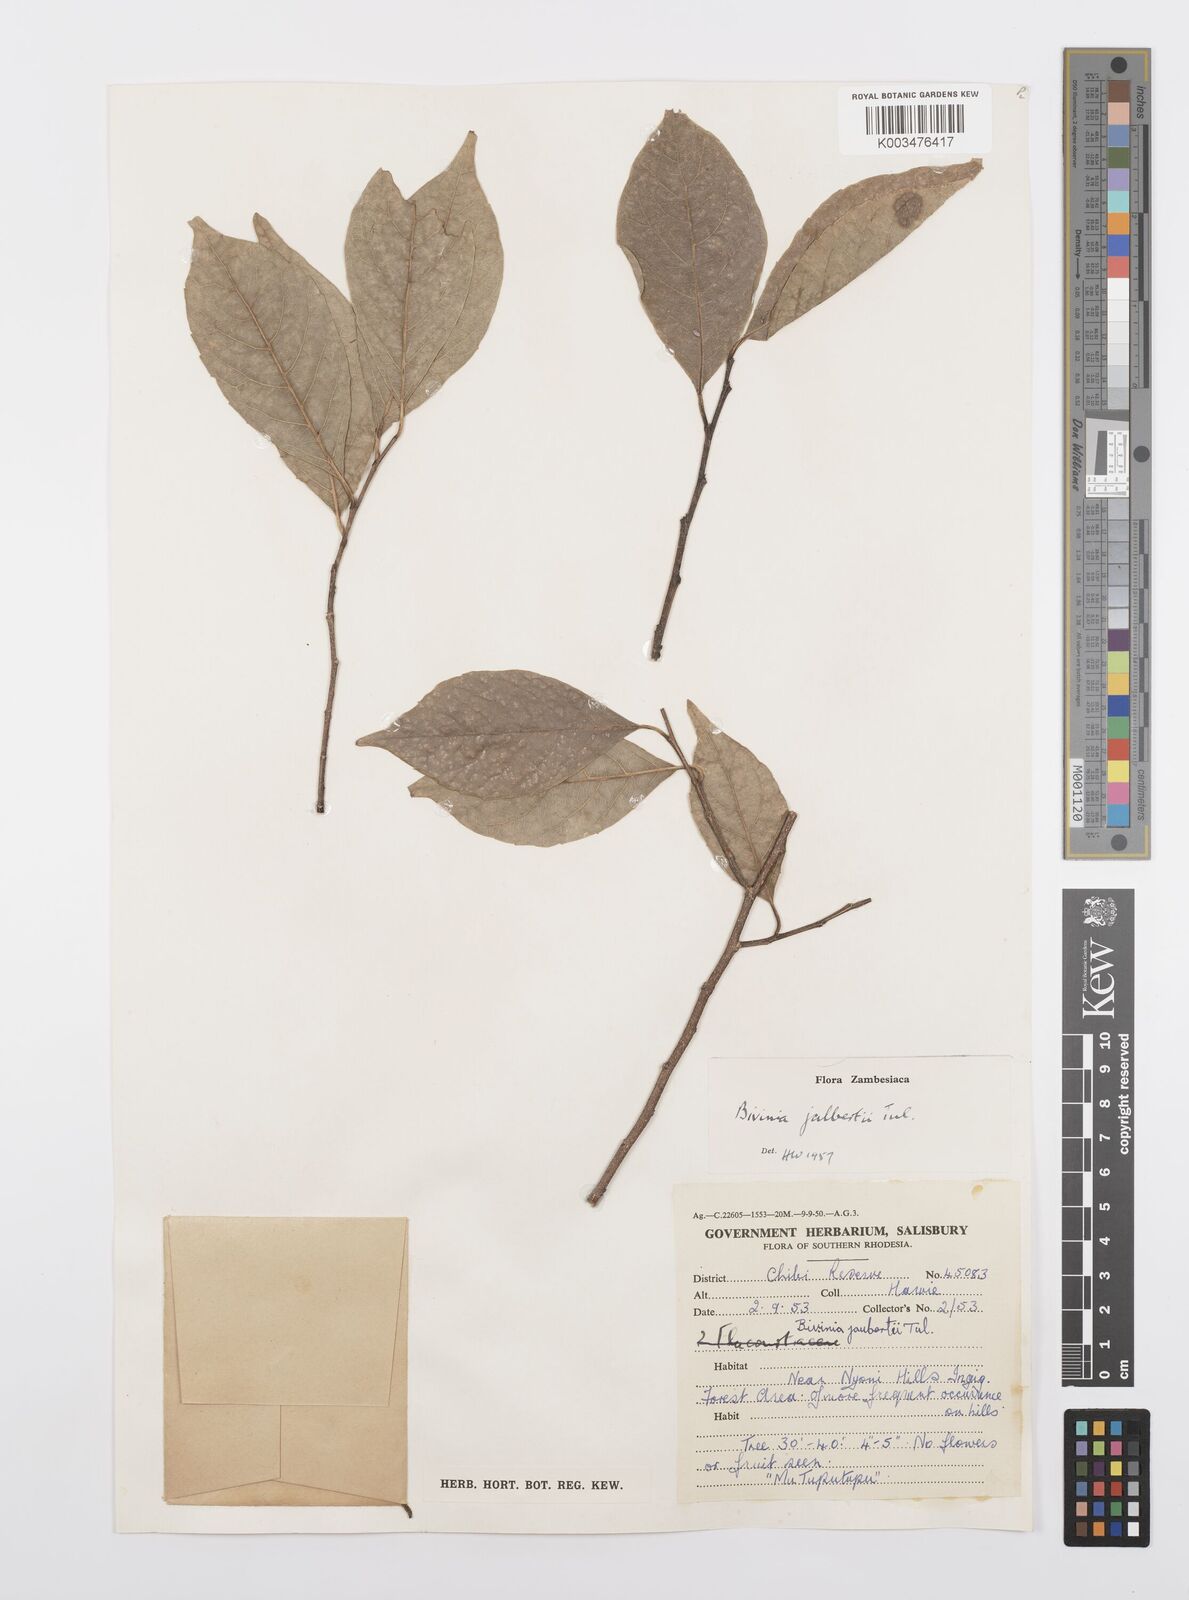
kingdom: Plantae
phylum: Tracheophyta
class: Magnoliopsida
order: Malpighiales
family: Salicaceae
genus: Bivinia
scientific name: Bivinia jalbertii
